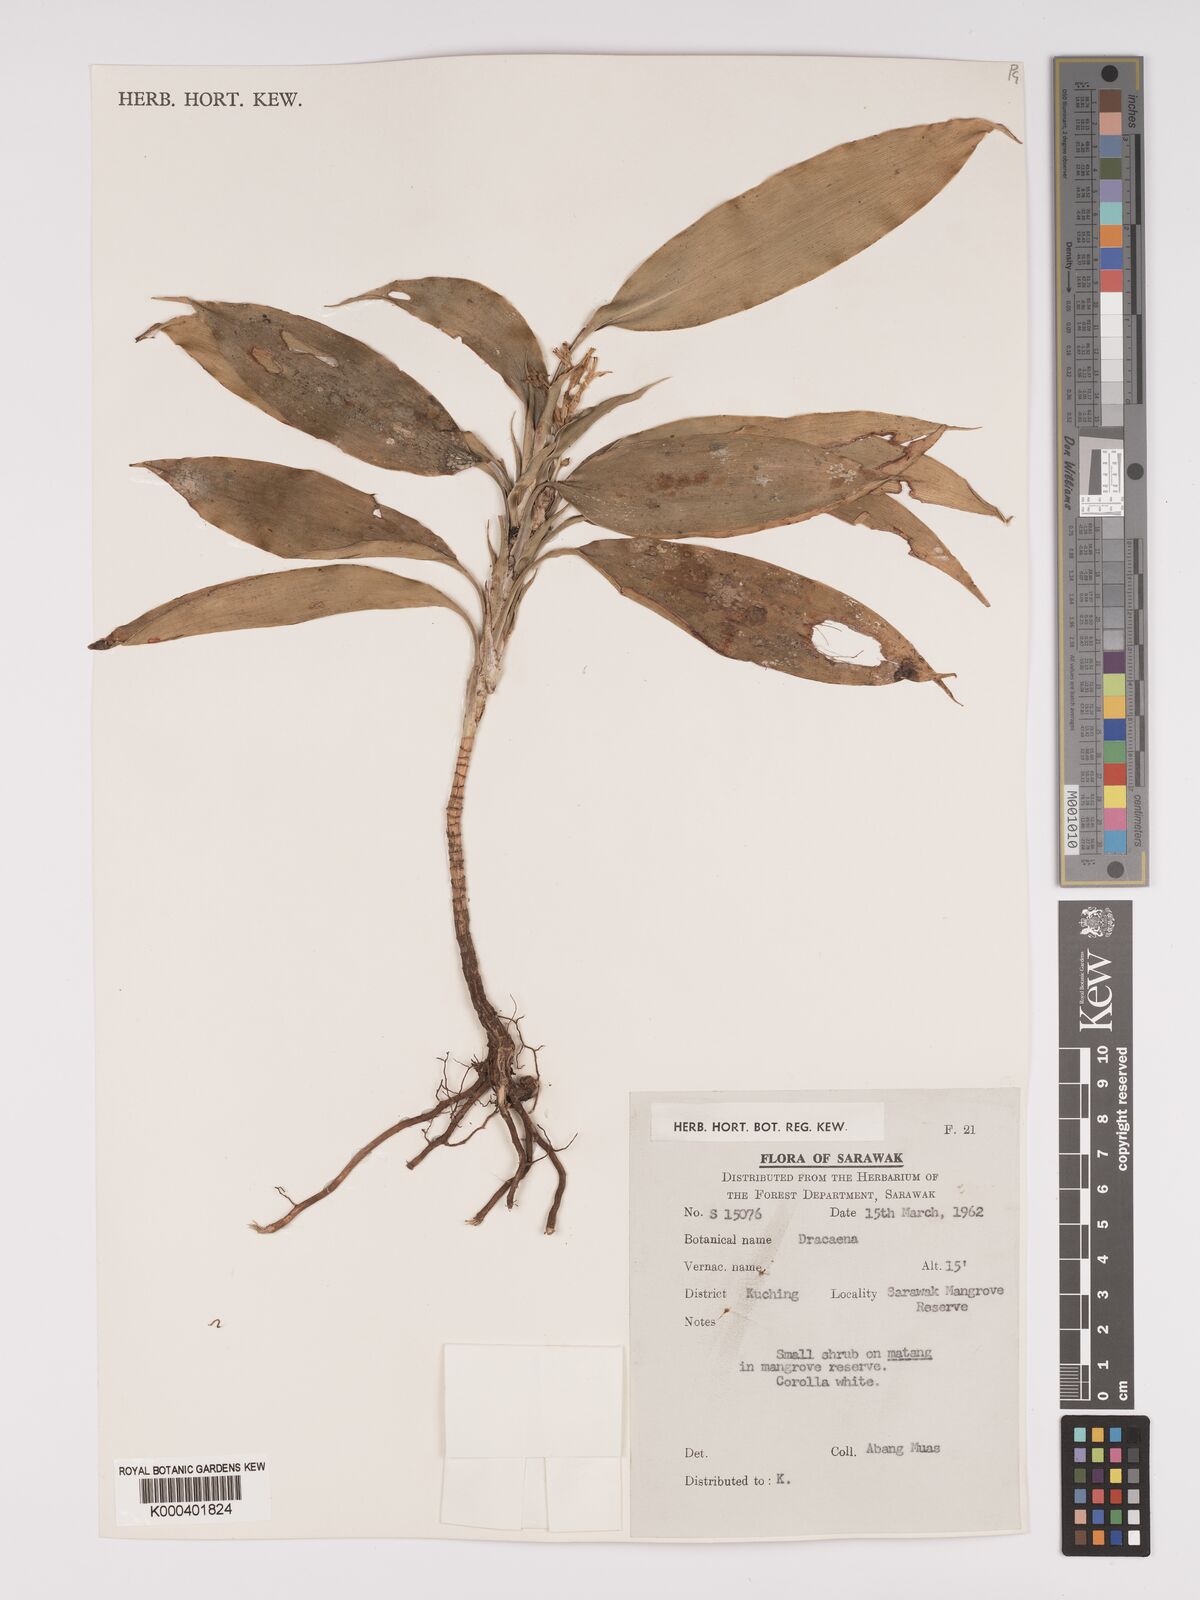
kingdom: Plantae
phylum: Tracheophyta
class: Liliopsida
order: Asparagales
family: Asparagaceae
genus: Dracaena
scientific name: Dracaena
